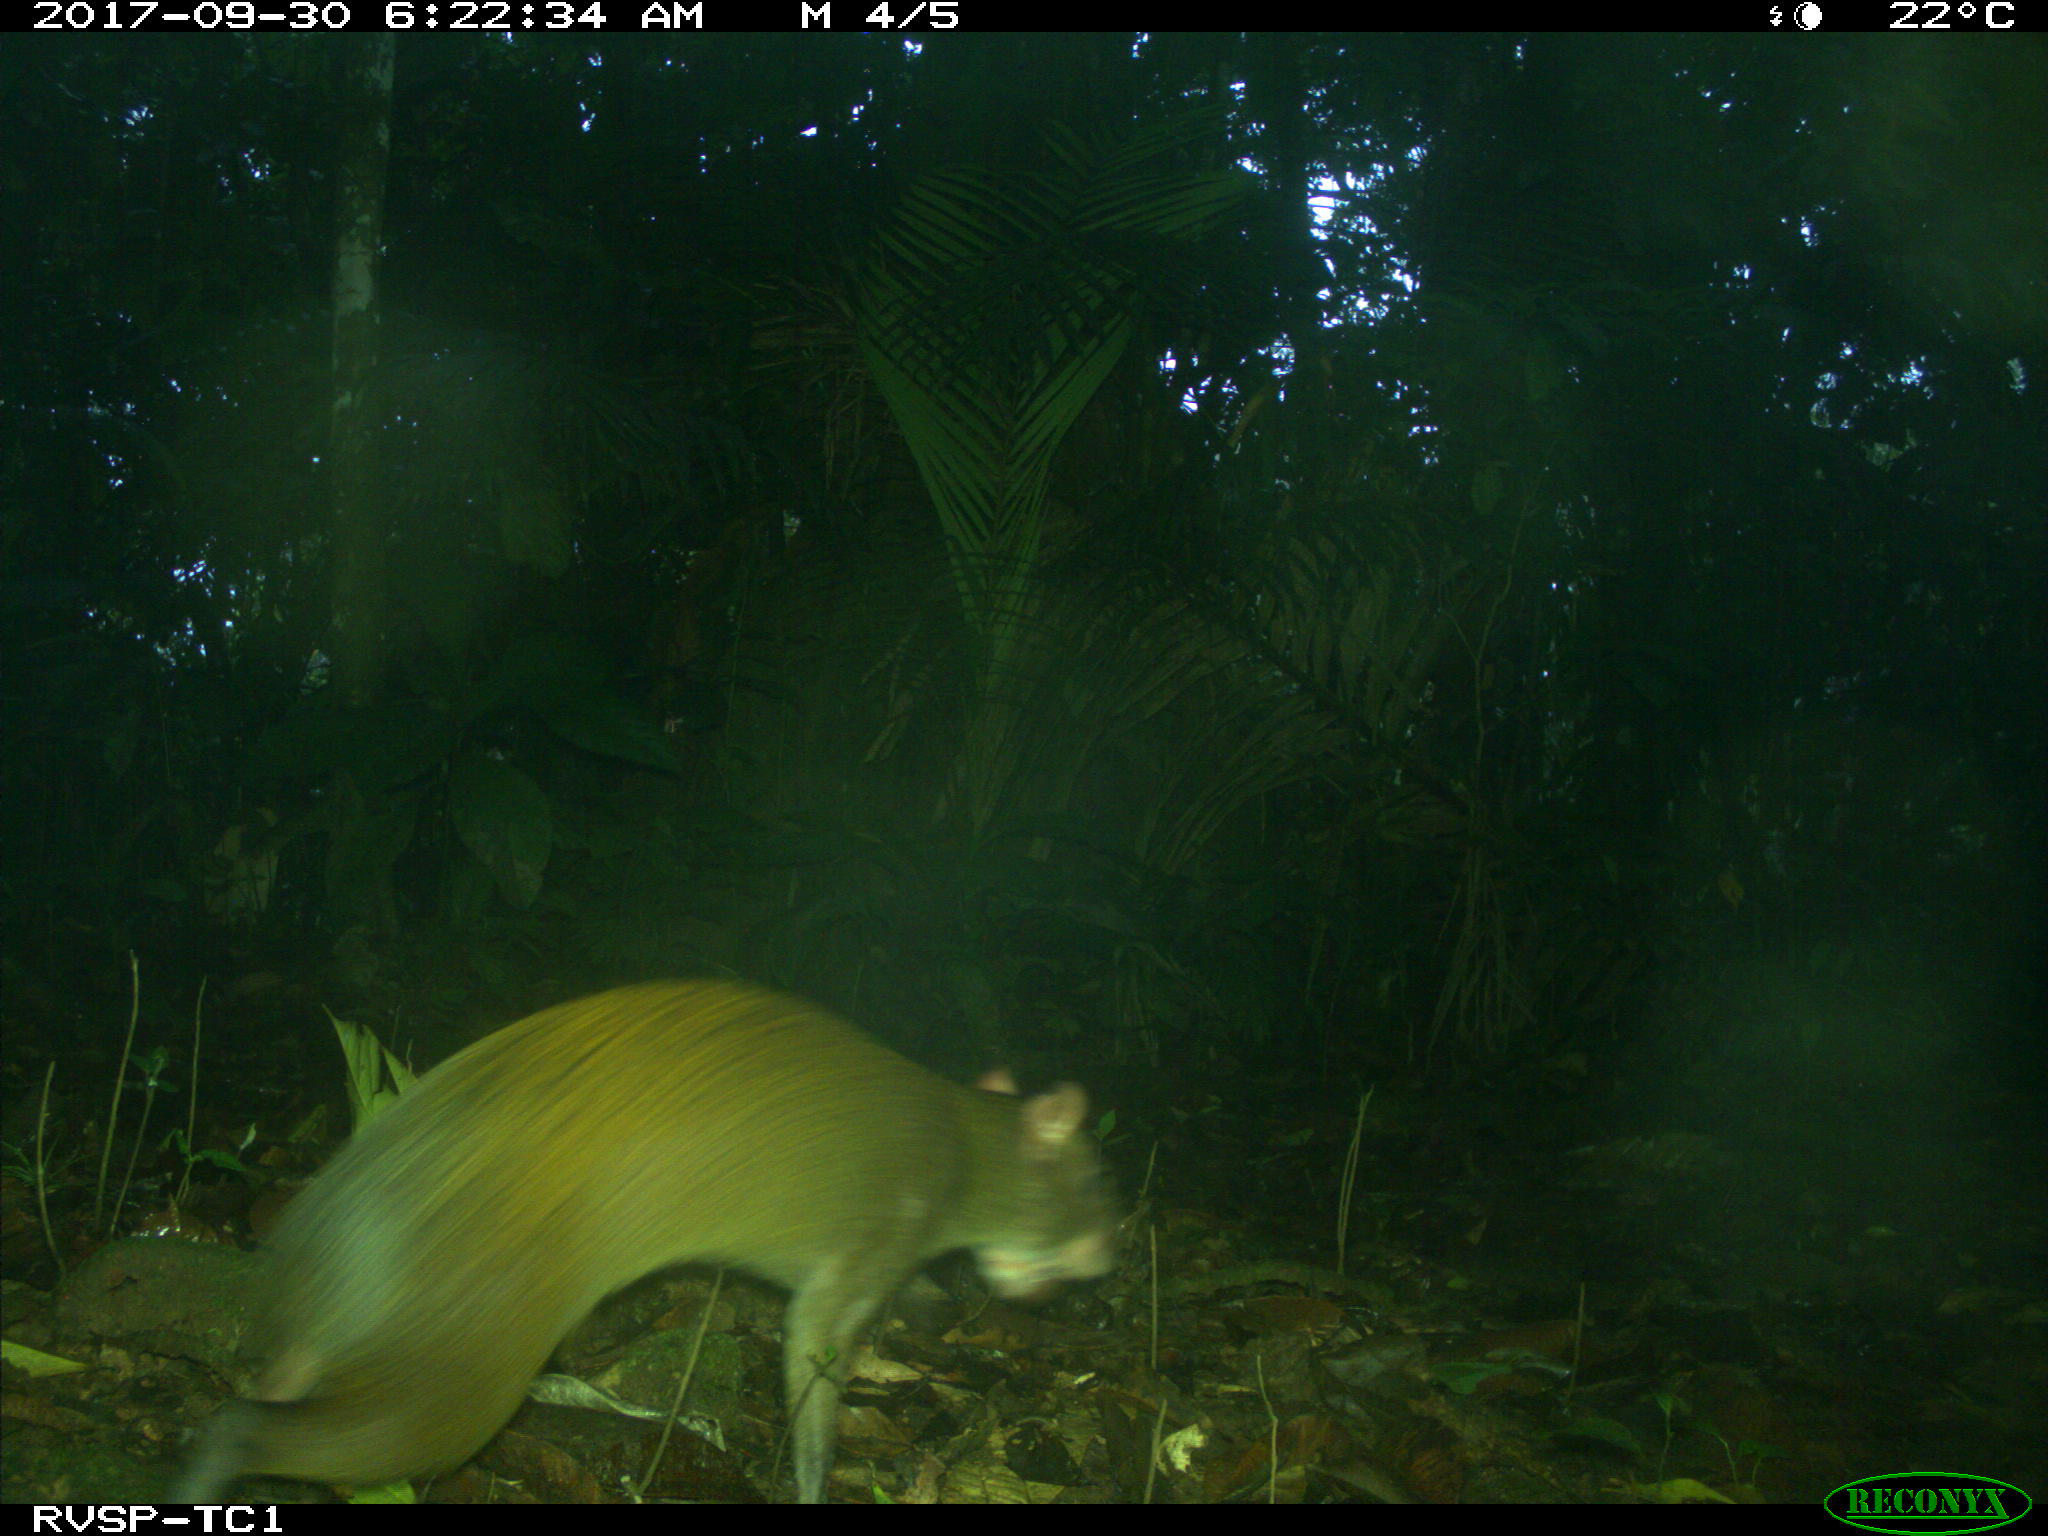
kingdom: Animalia
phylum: Chordata
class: Mammalia
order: Rodentia
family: Dasyproctidae
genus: Dasyprocta
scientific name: Dasyprocta punctata
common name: Central american agouti
